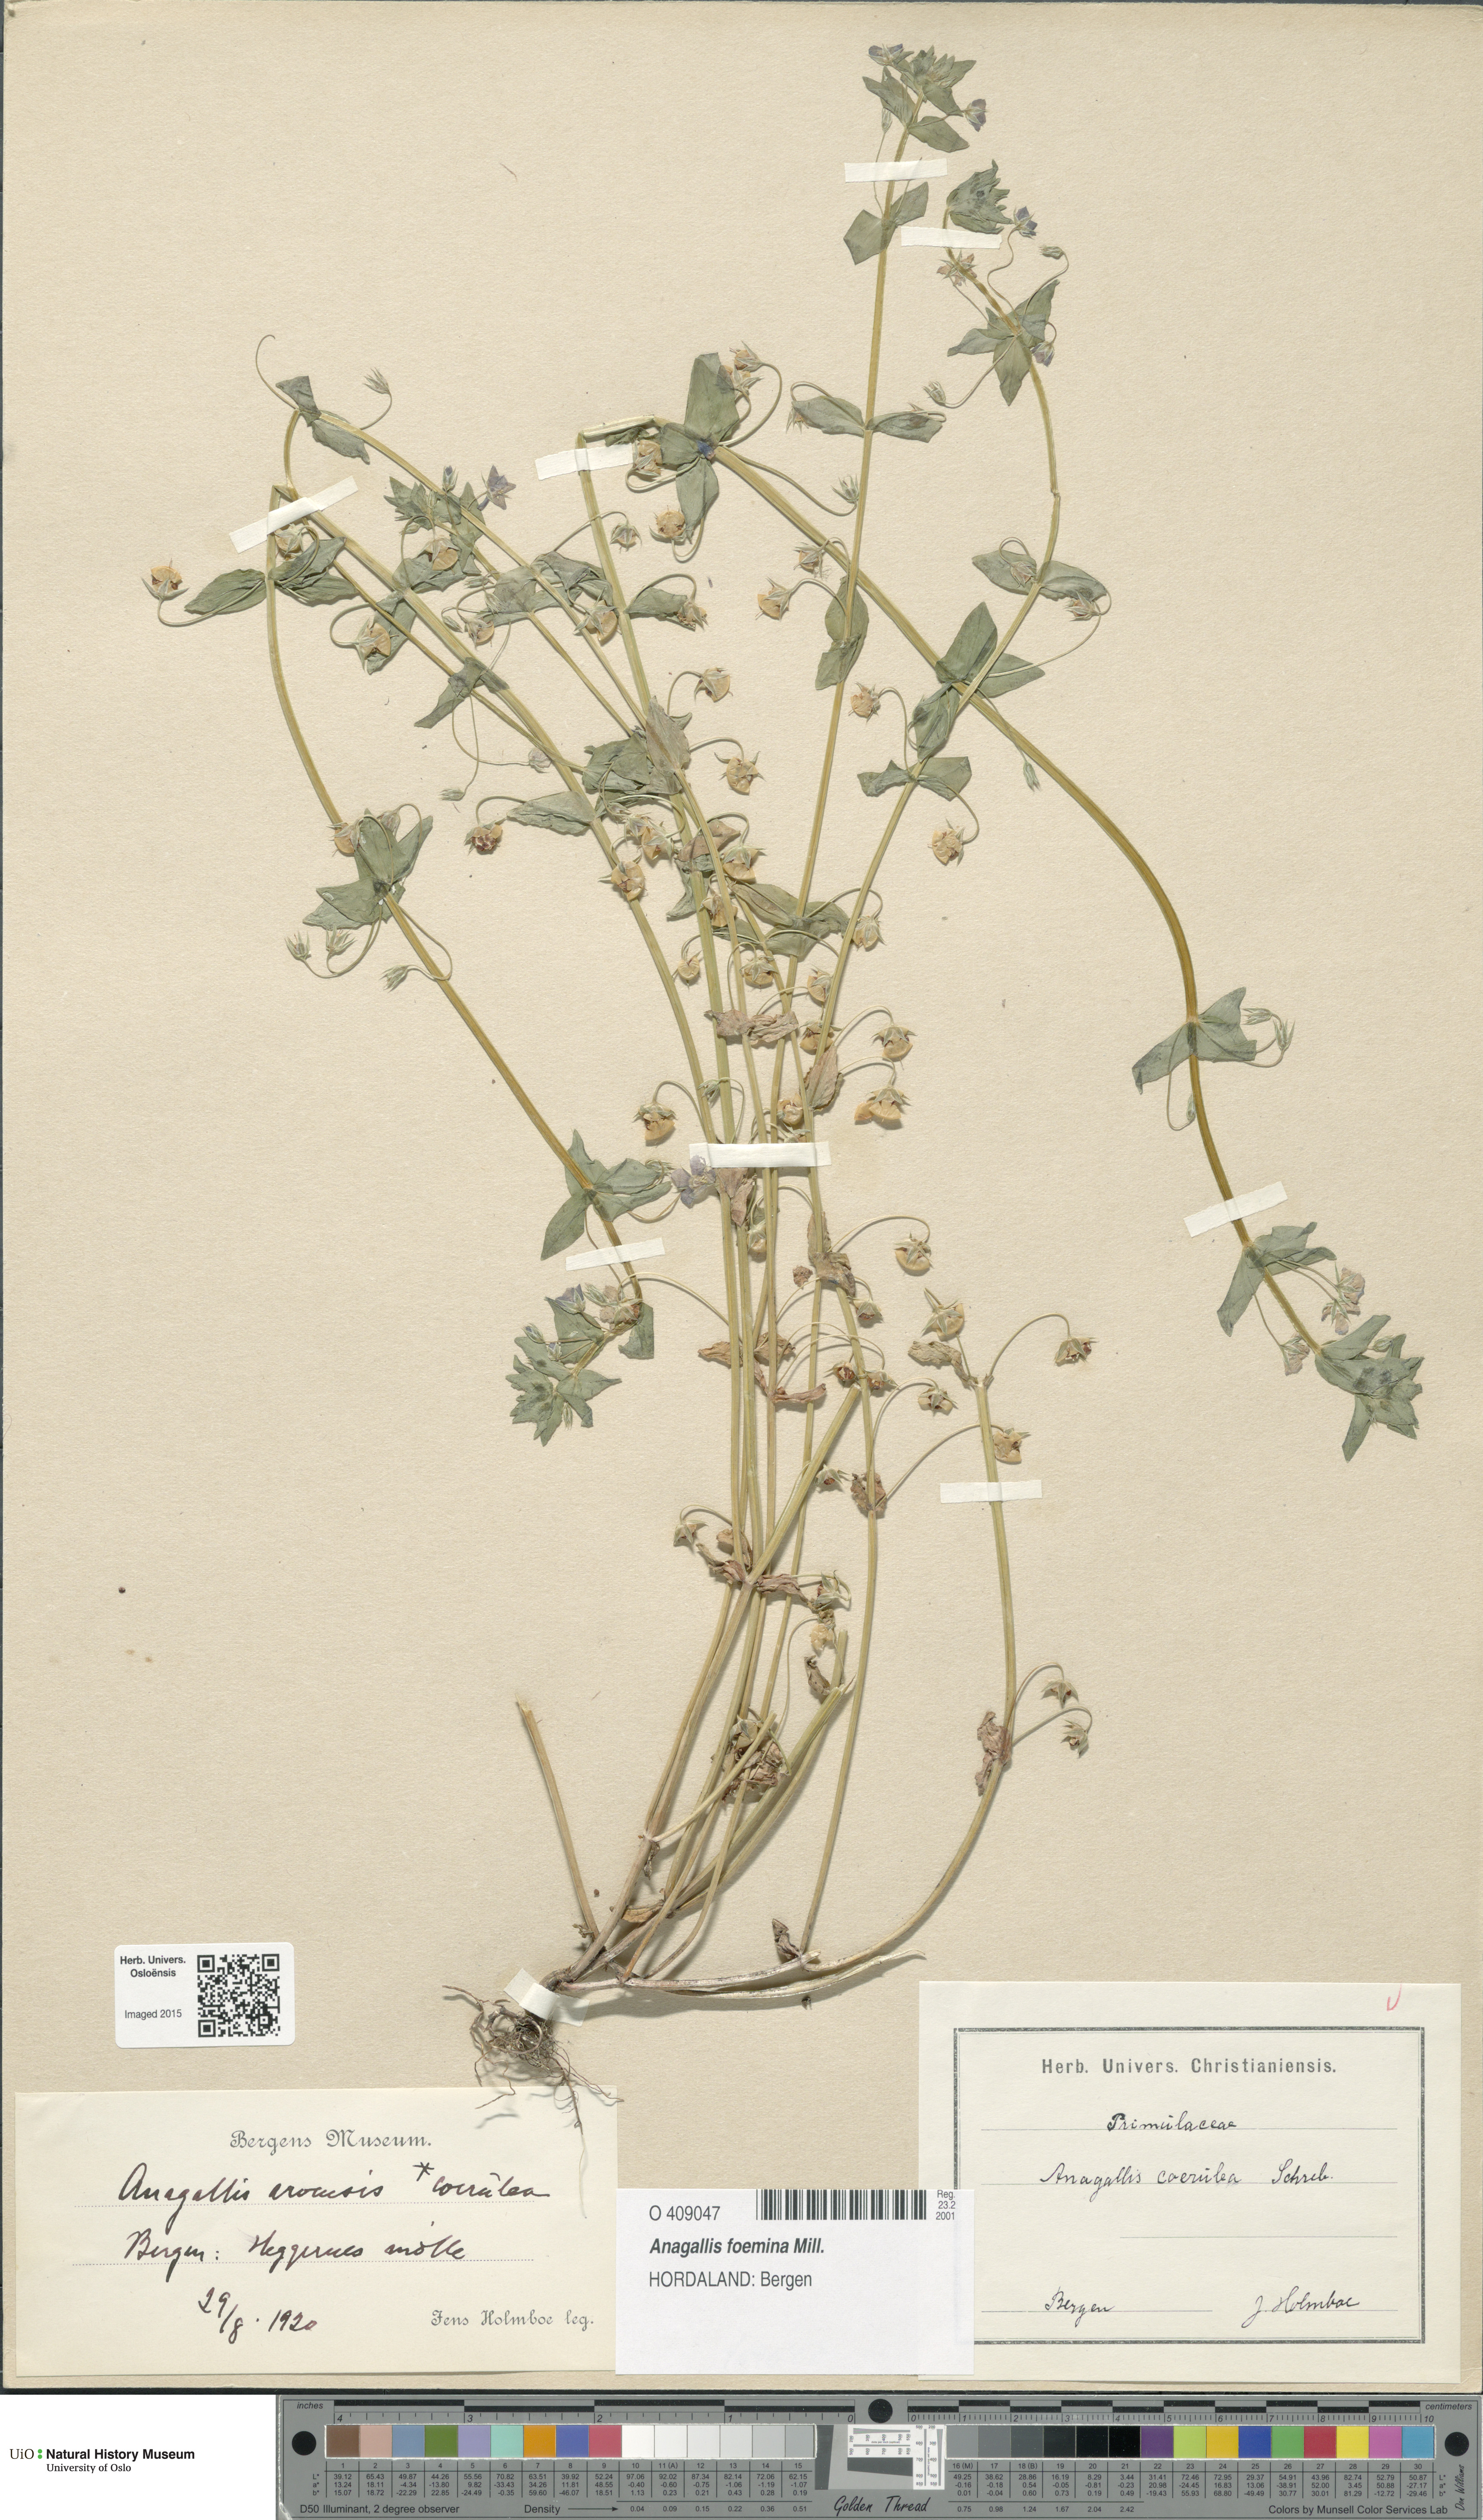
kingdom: Plantae
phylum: Tracheophyta
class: Magnoliopsida
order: Ericales
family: Primulaceae
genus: Lysimachia
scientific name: Lysimachia foemina
